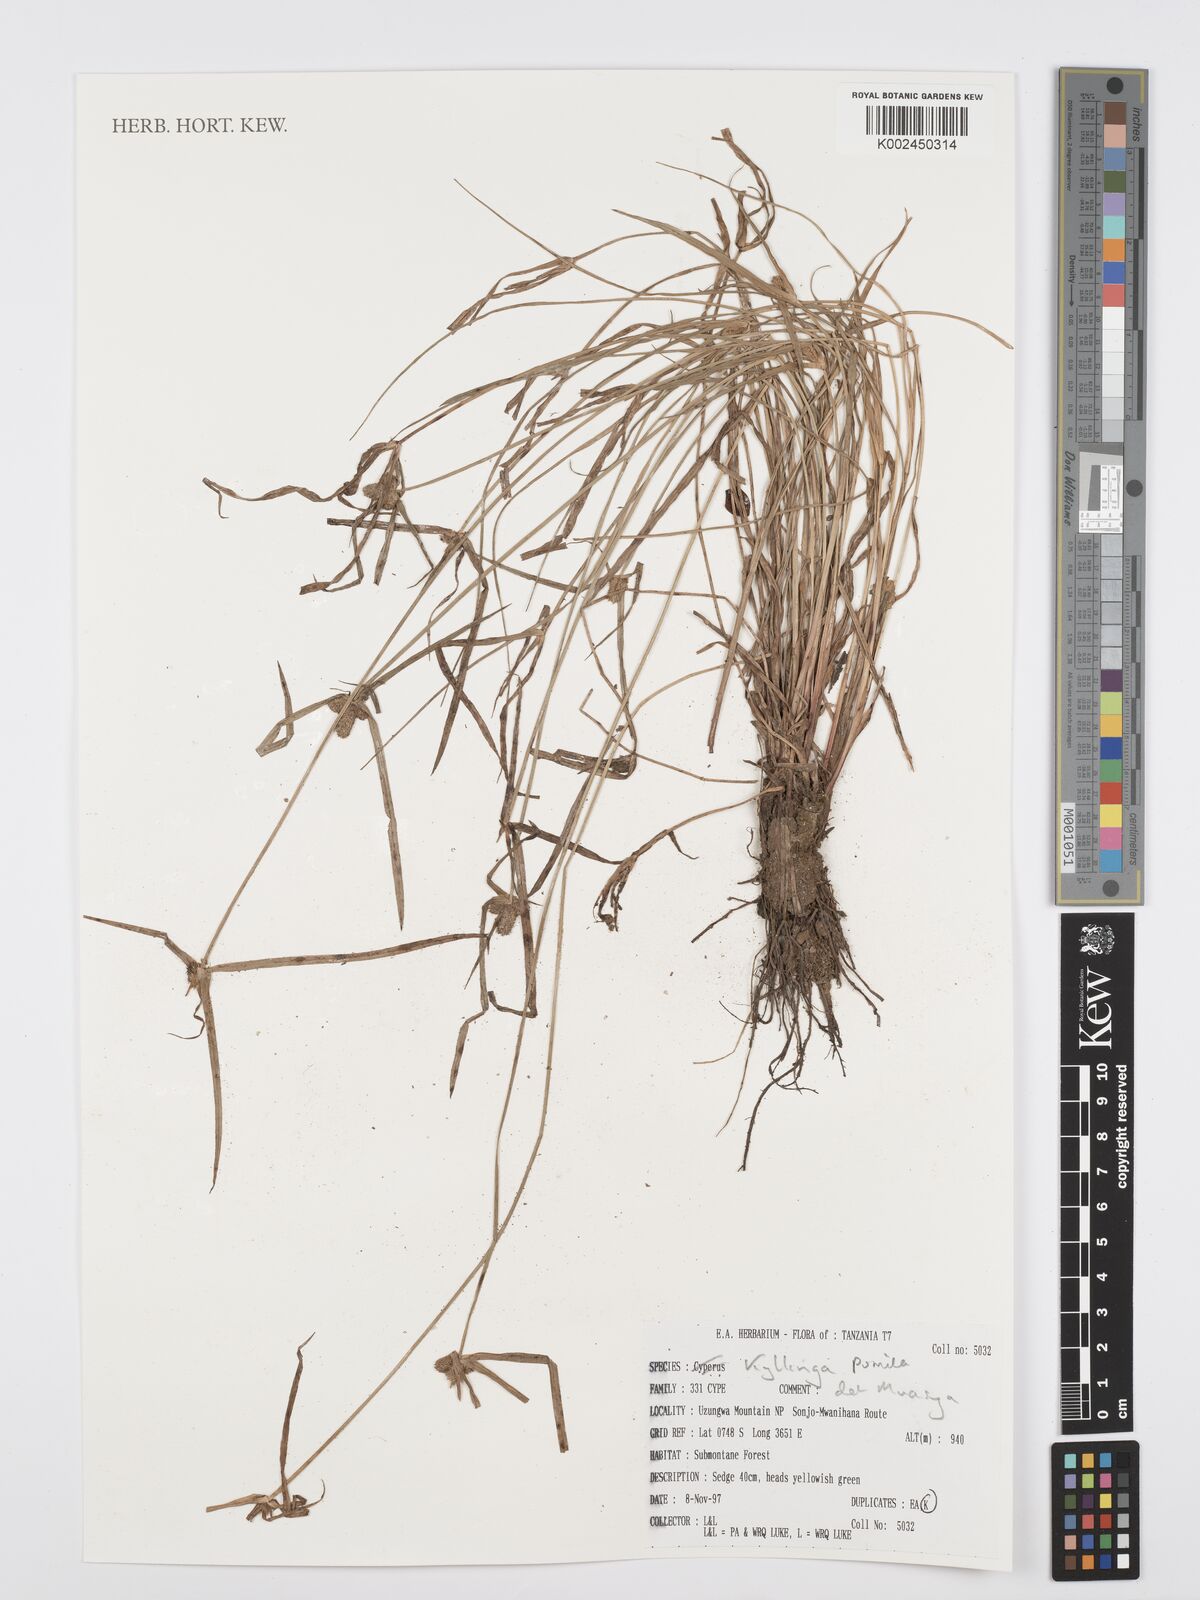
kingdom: Plantae
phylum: Tracheophyta
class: Liliopsida
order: Poales
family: Cyperaceae
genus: Cyperus
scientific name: Cyperus
